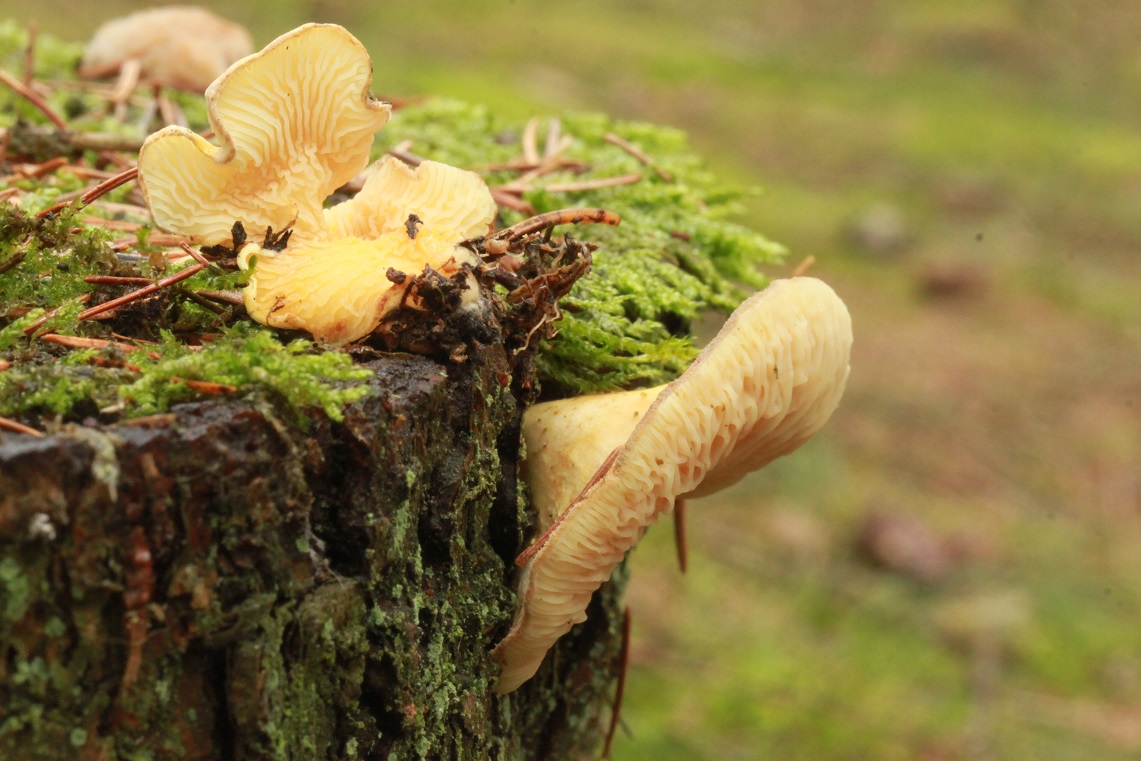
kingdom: Fungi
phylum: Basidiomycota
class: Agaricomycetes
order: Boletales
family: Tapinellaceae
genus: Tapinella
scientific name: Tapinella panuoides
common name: tømmer-viftesvamp
